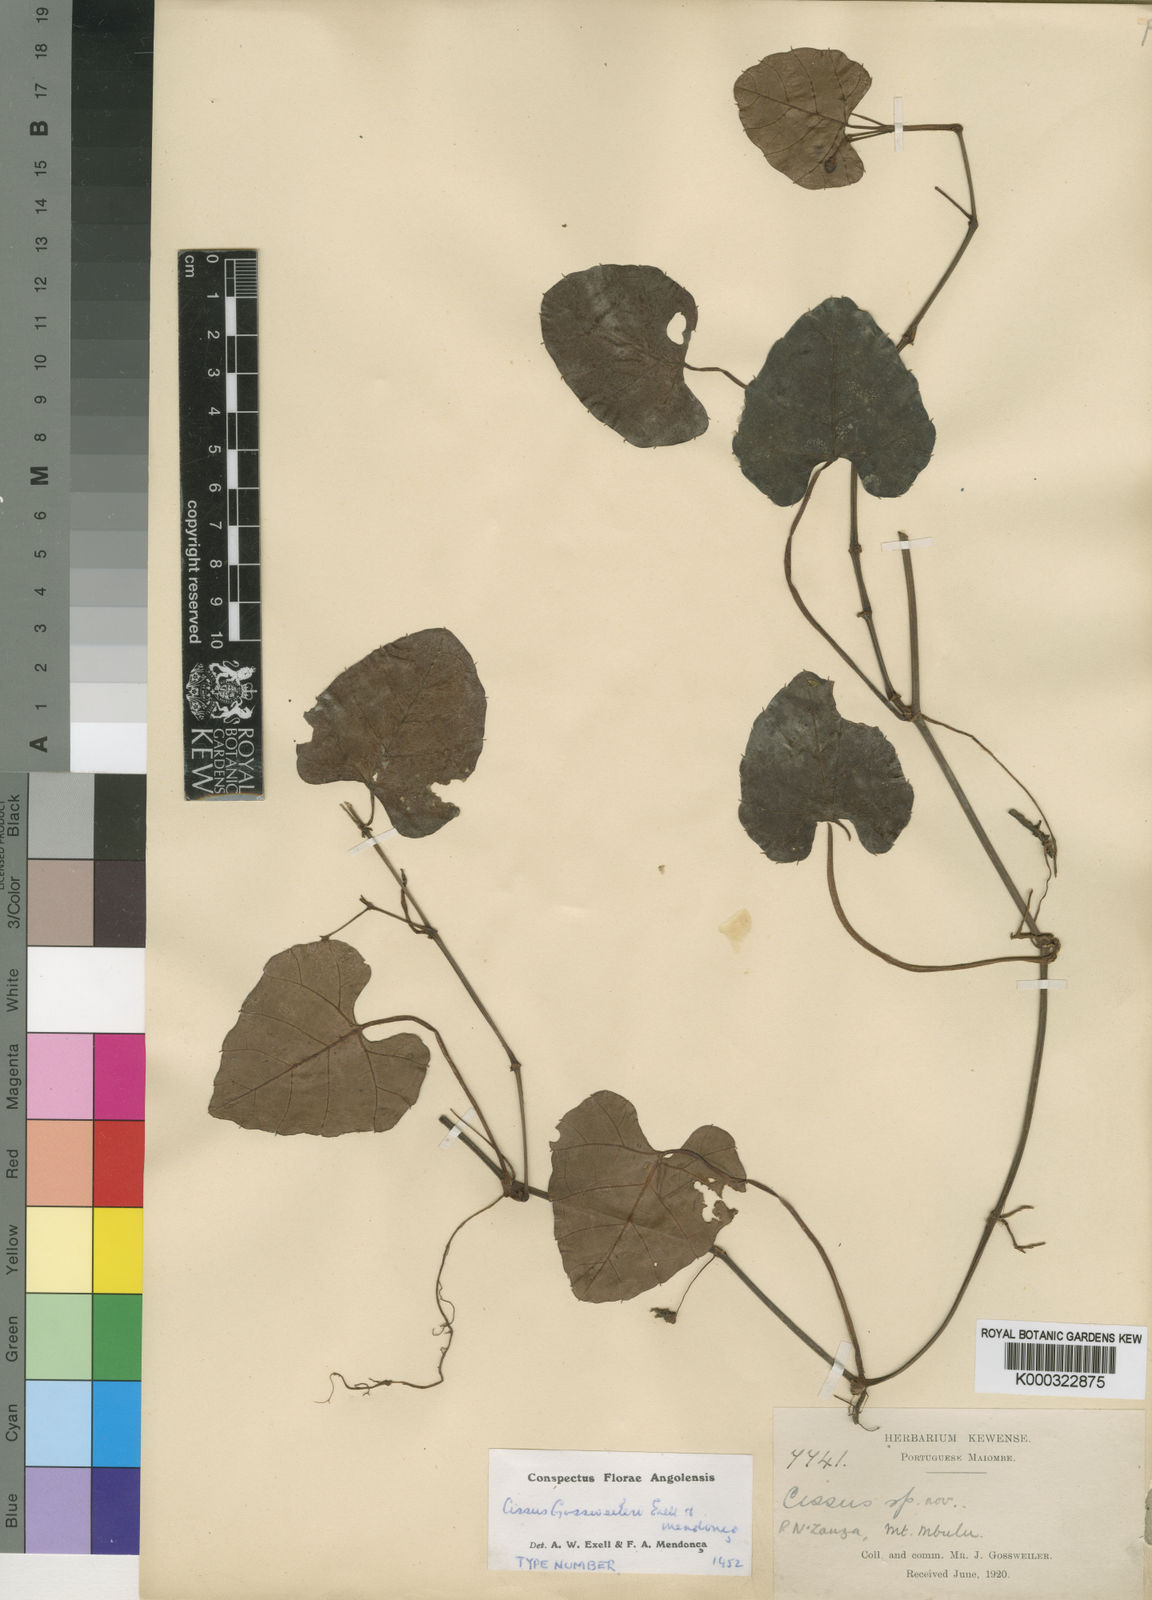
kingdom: Plantae
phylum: Tracheophyta
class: Magnoliopsida
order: Vitales
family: Vitaceae
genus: Cissus
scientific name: Cissus gossweileri
